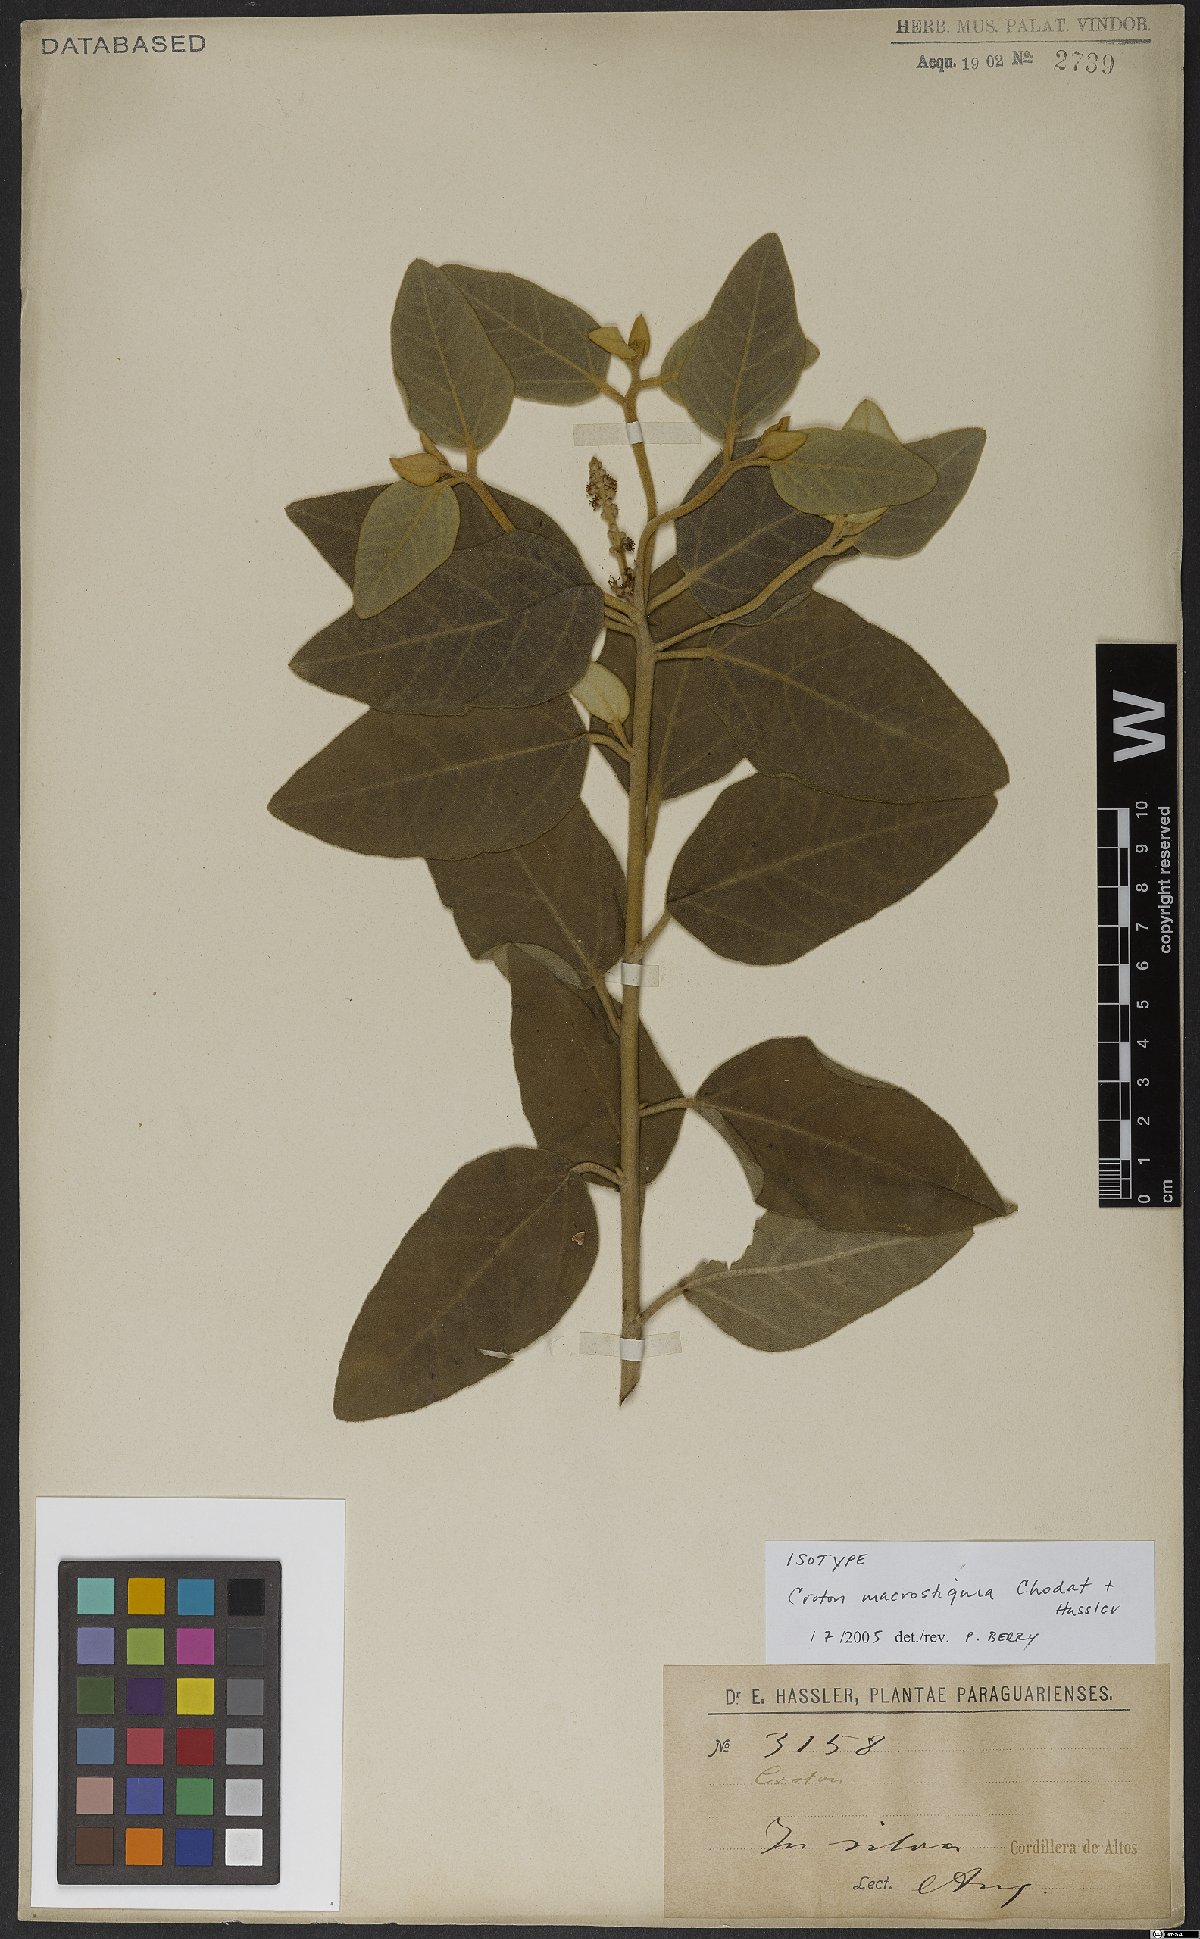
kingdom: Plantae
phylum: Tracheophyta
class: Magnoliopsida
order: Malpighiales
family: Euphorbiaceae
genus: Croton
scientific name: Croton macrostigma
